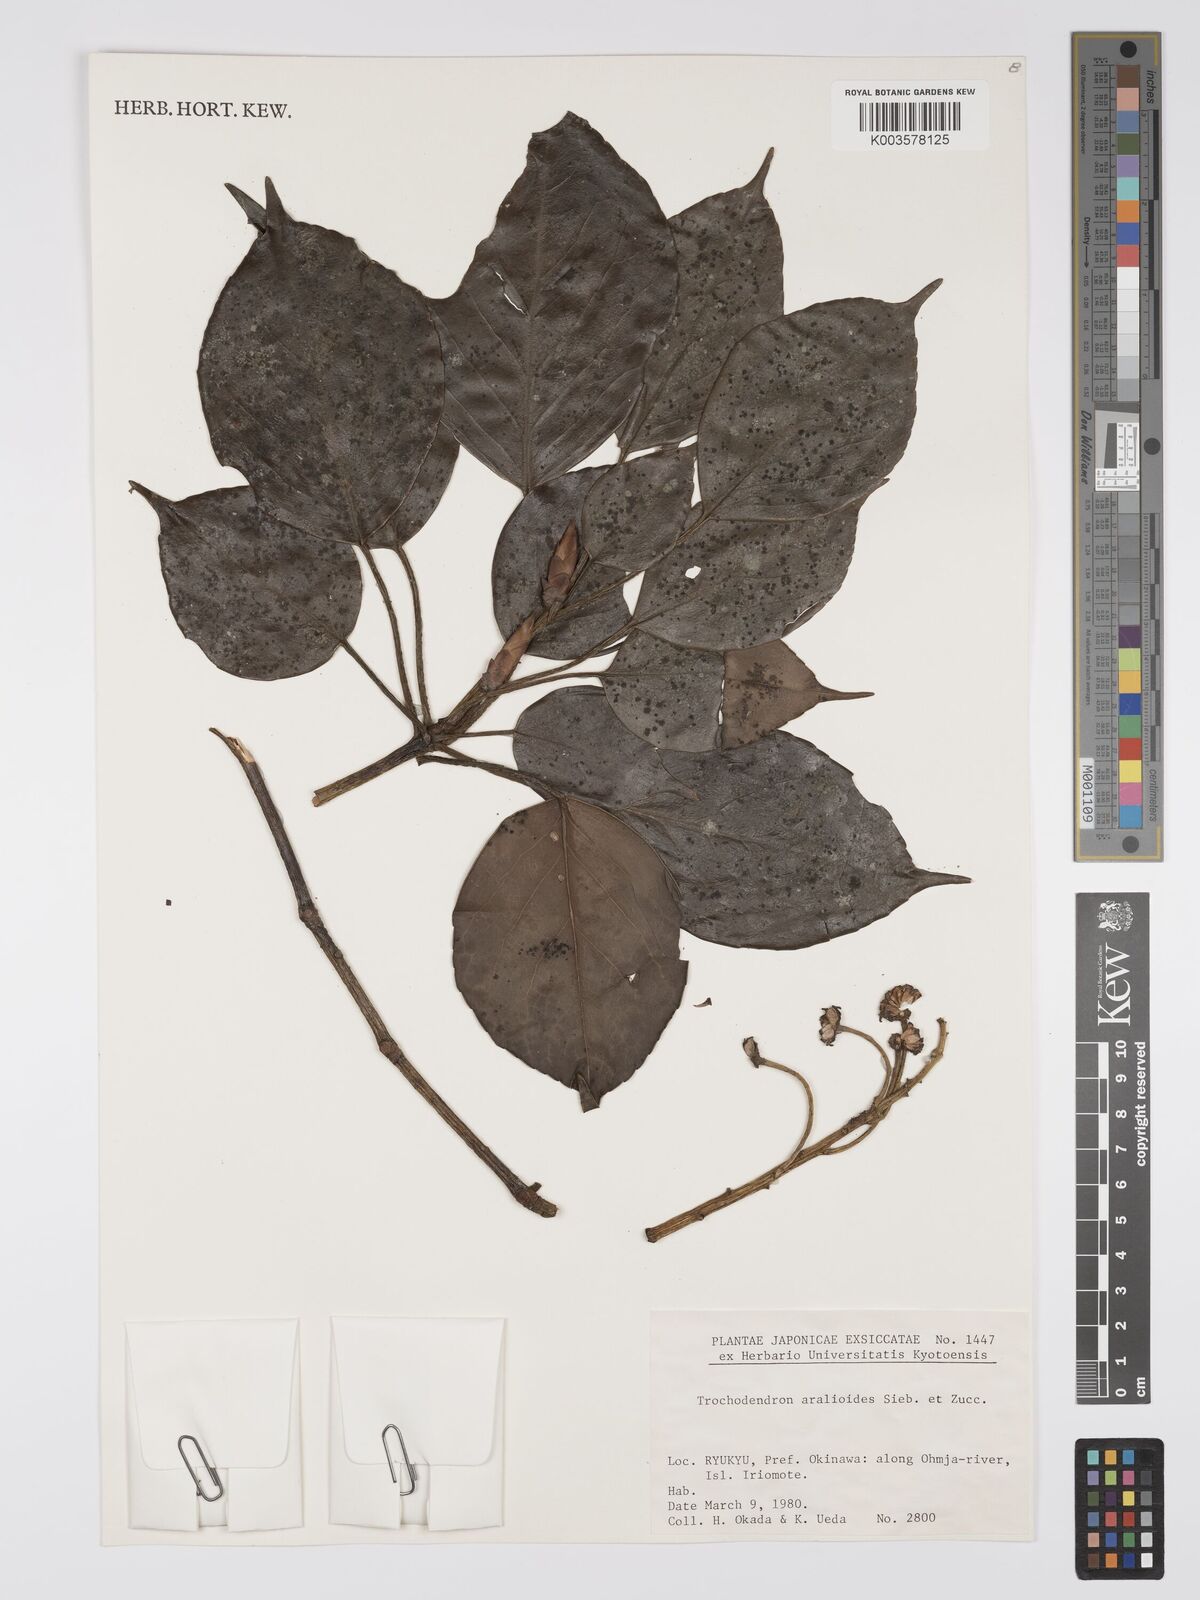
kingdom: Plantae
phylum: Tracheophyta
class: Magnoliopsida
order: Trochodendrales
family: Trochodendraceae
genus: Trochodendron
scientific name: Trochodendron aralioides
